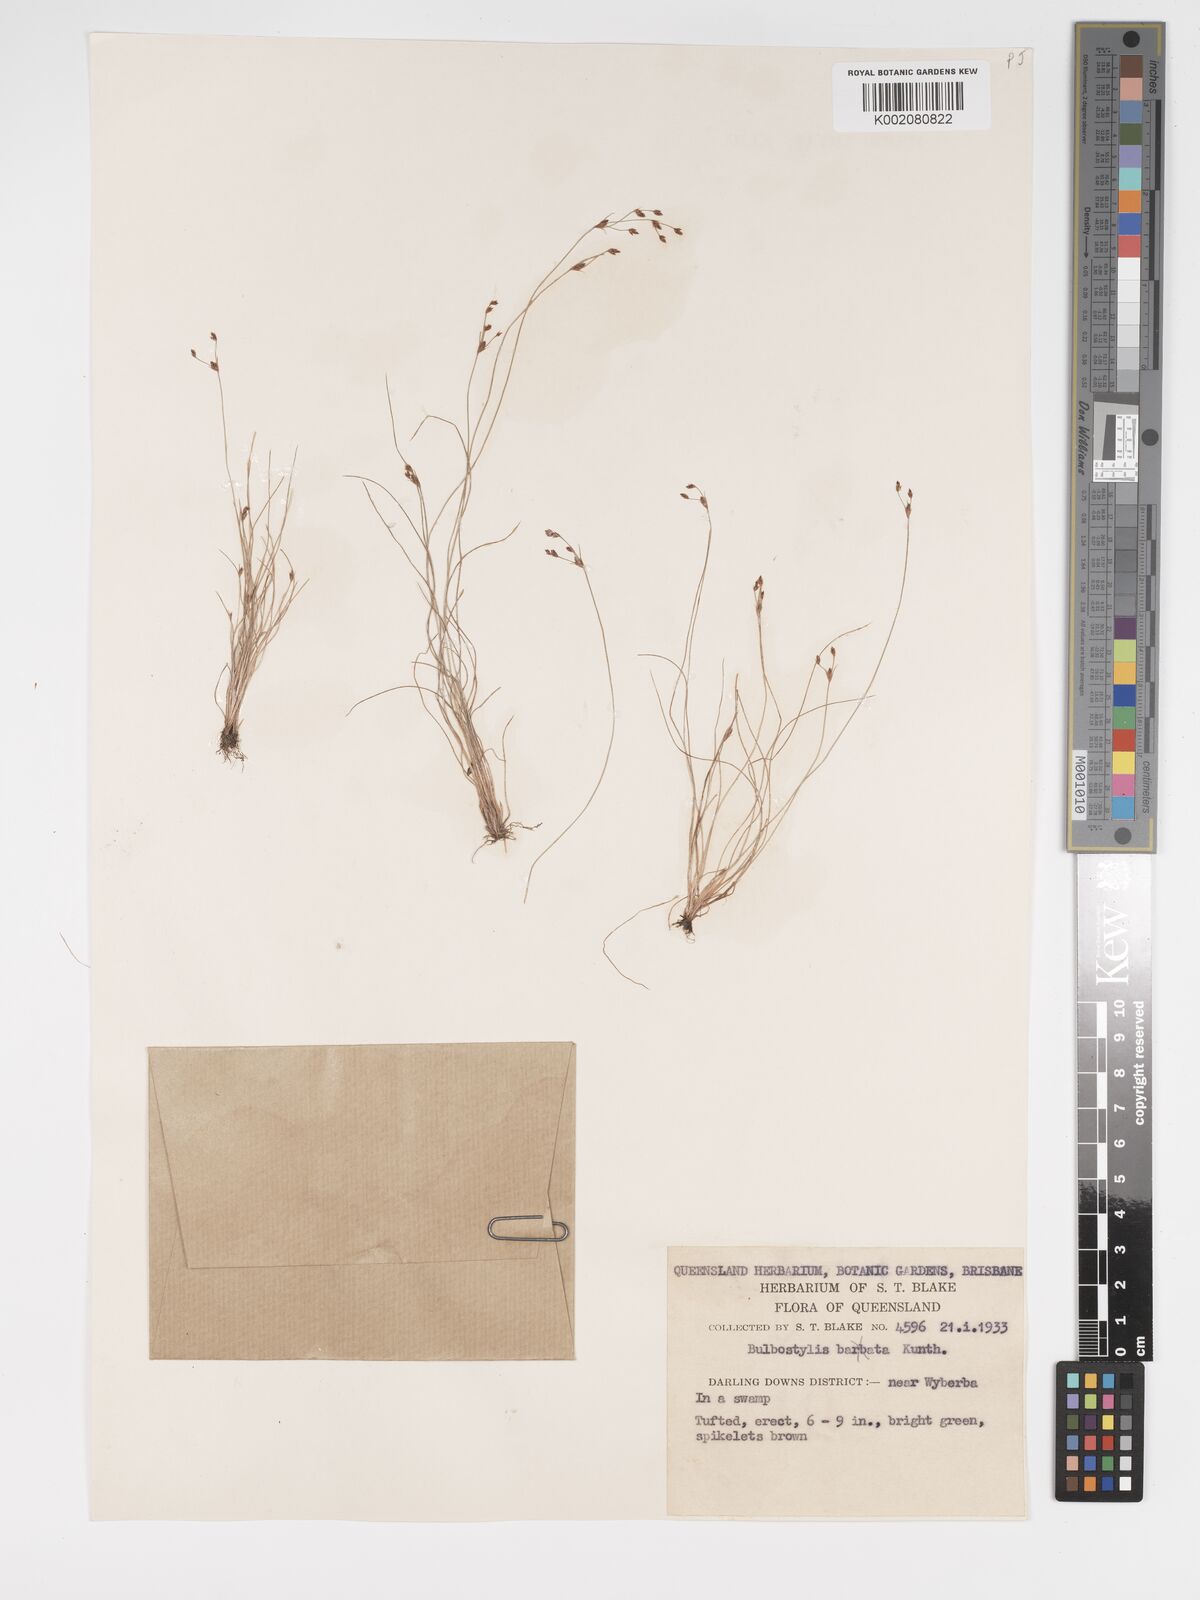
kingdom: Plantae
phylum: Tracheophyta
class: Liliopsida
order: Poales
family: Cyperaceae
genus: Bulbostylis
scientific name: Bulbostylis capillaris
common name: Densetuft hairsedge
